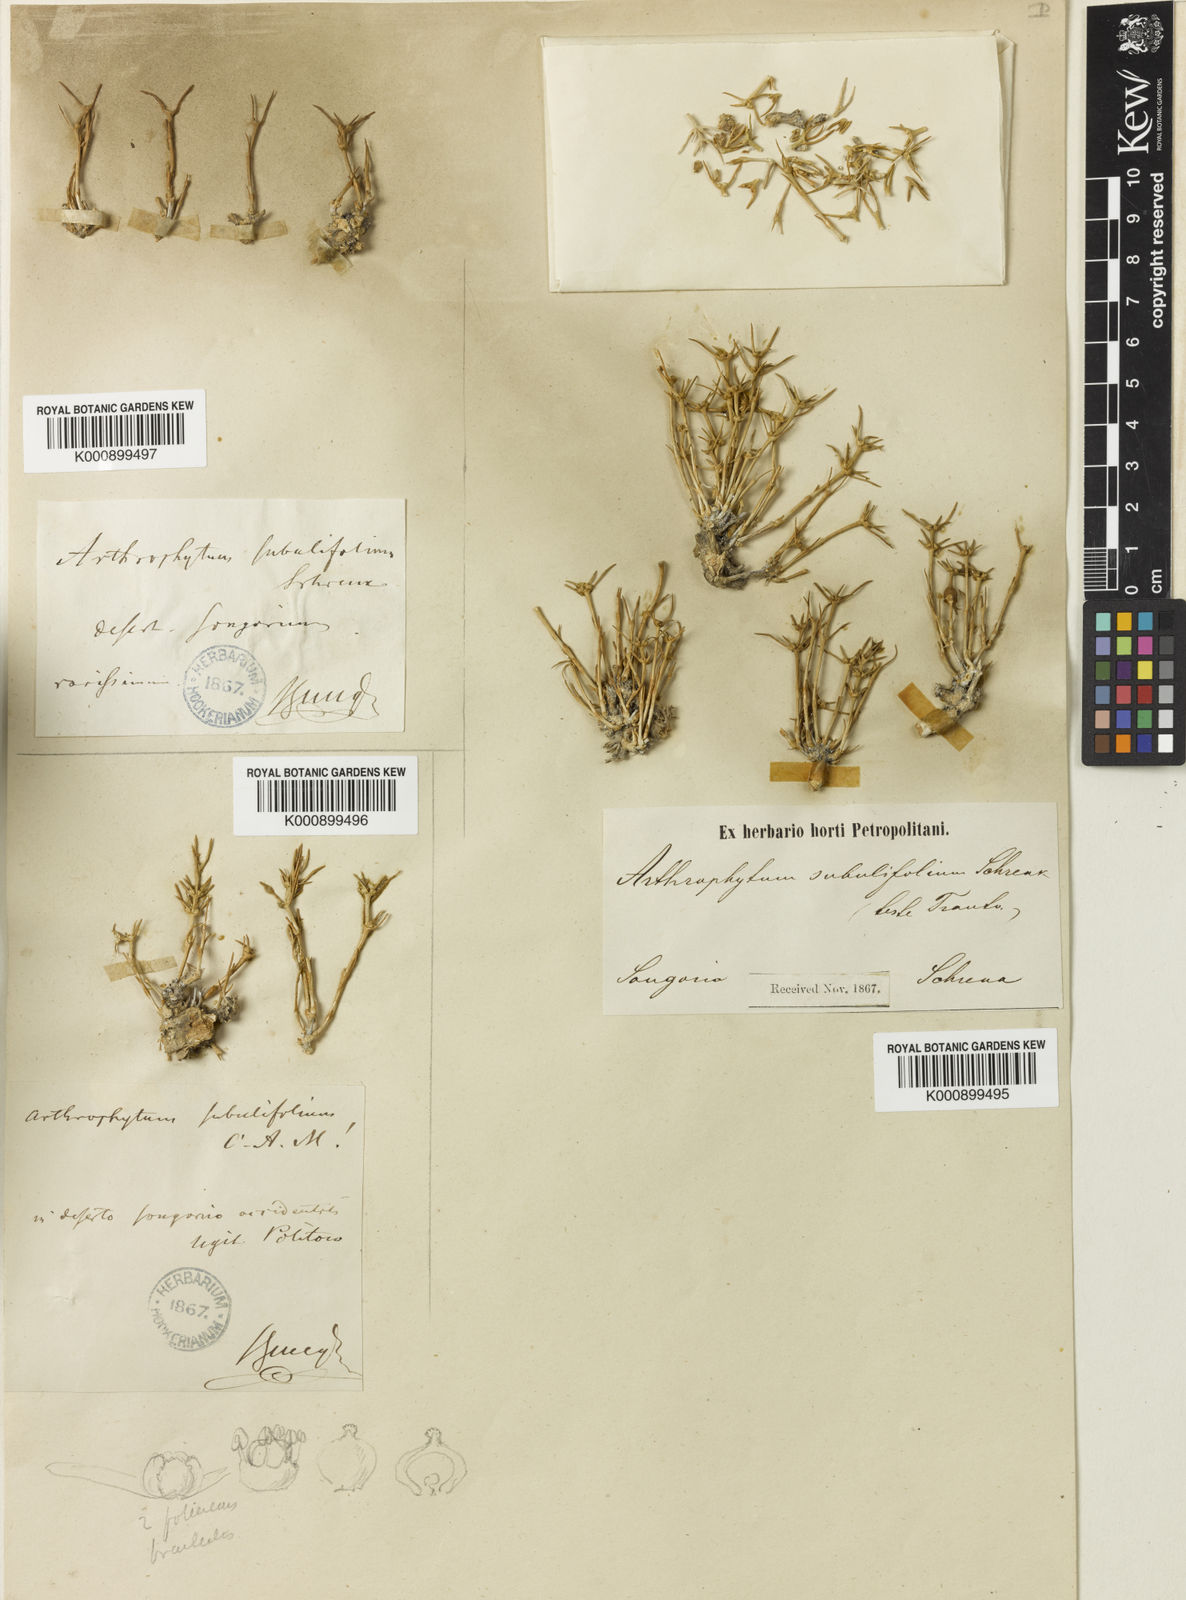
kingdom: Plantae
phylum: Tracheophyta
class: Magnoliopsida
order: Caryophyllales
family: Amaranthaceae
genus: Arthrophytum
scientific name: Arthrophytum subulifolium
